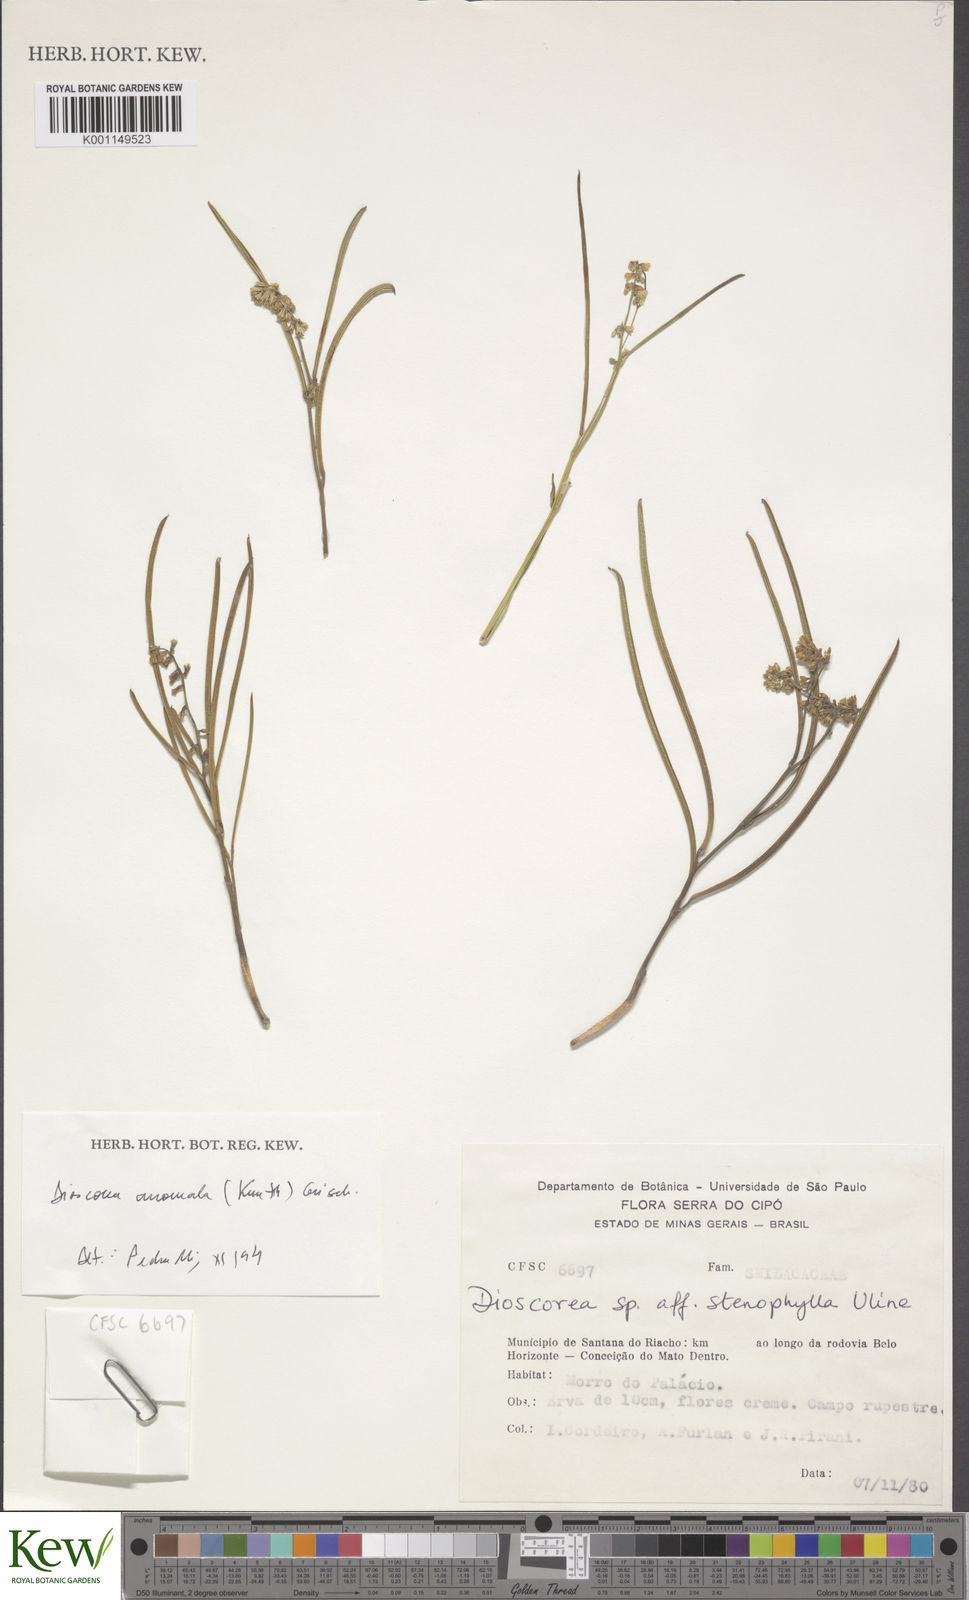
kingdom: Plantae
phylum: Tracheophyta
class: Liliopsida
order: Dioscoreales
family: Dioscoreaceae
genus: Dioscorea
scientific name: Dioscorea anomala
